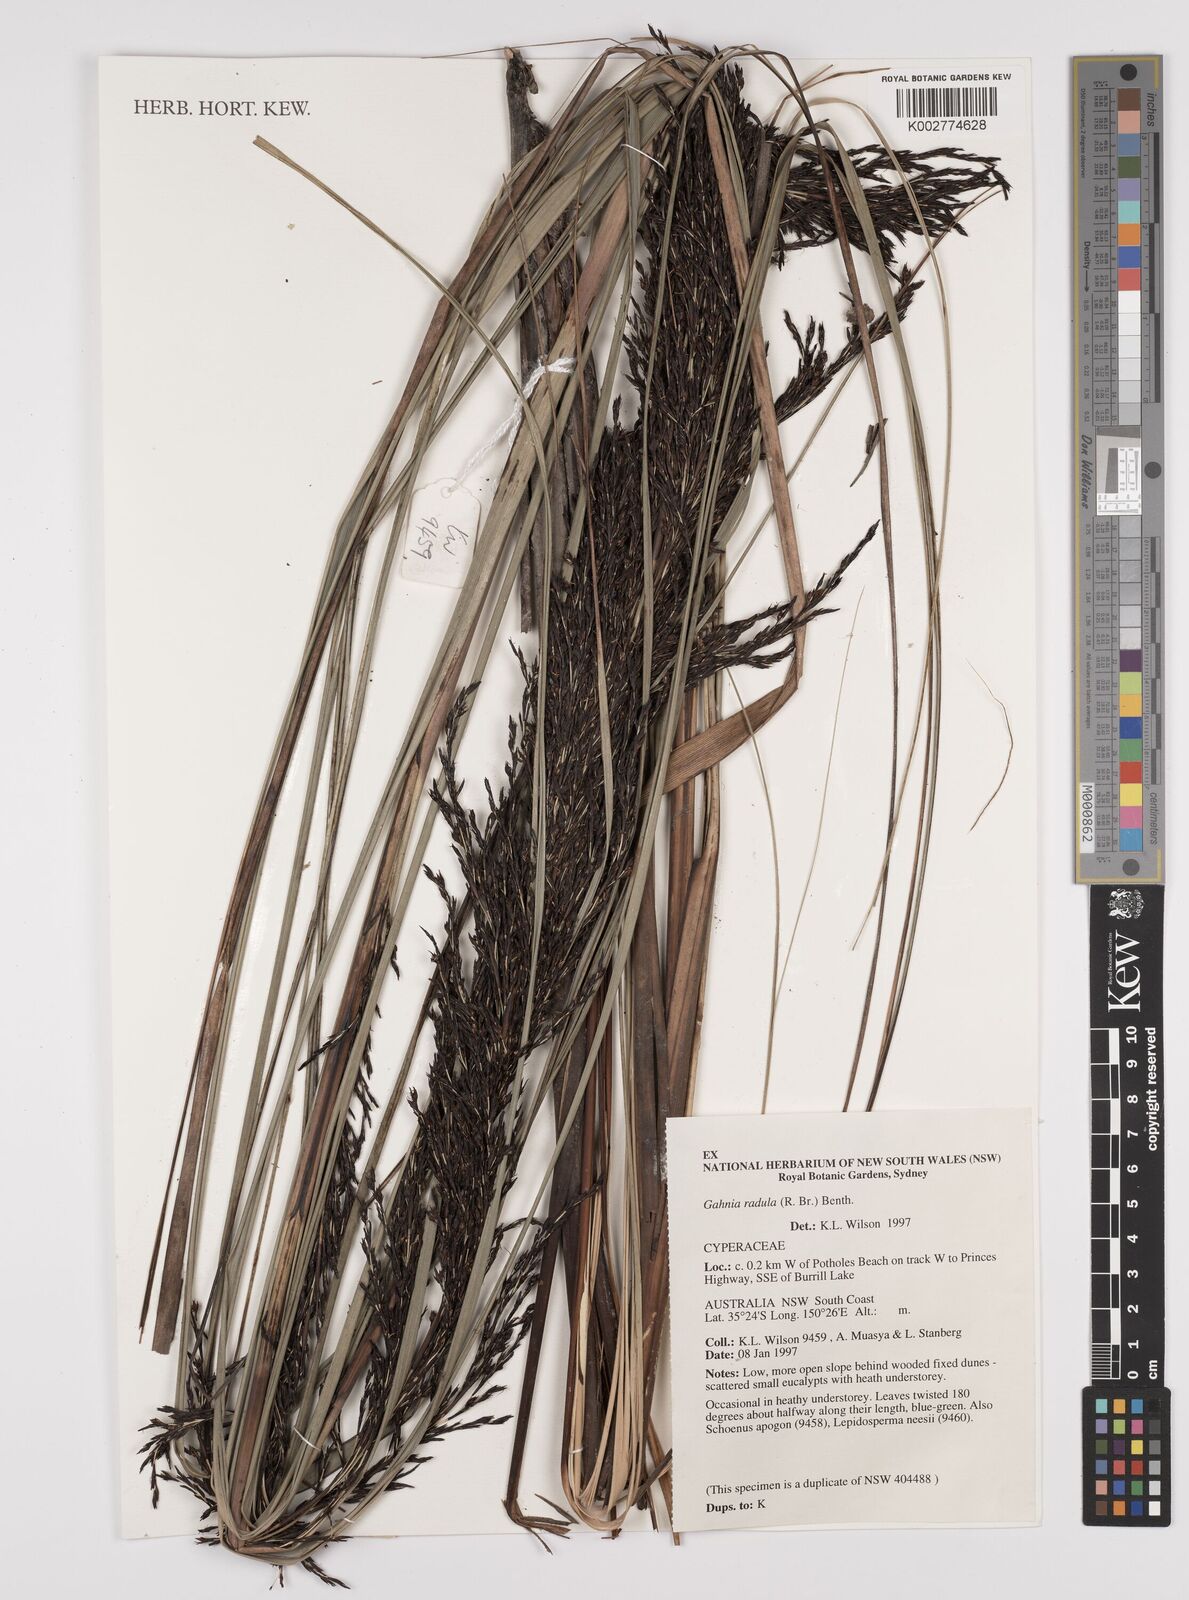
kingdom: Plantae
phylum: Tracheophyta
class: Liliopsida
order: Poales
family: Cyperaceae
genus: Gahnia
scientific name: Gahnia radula
